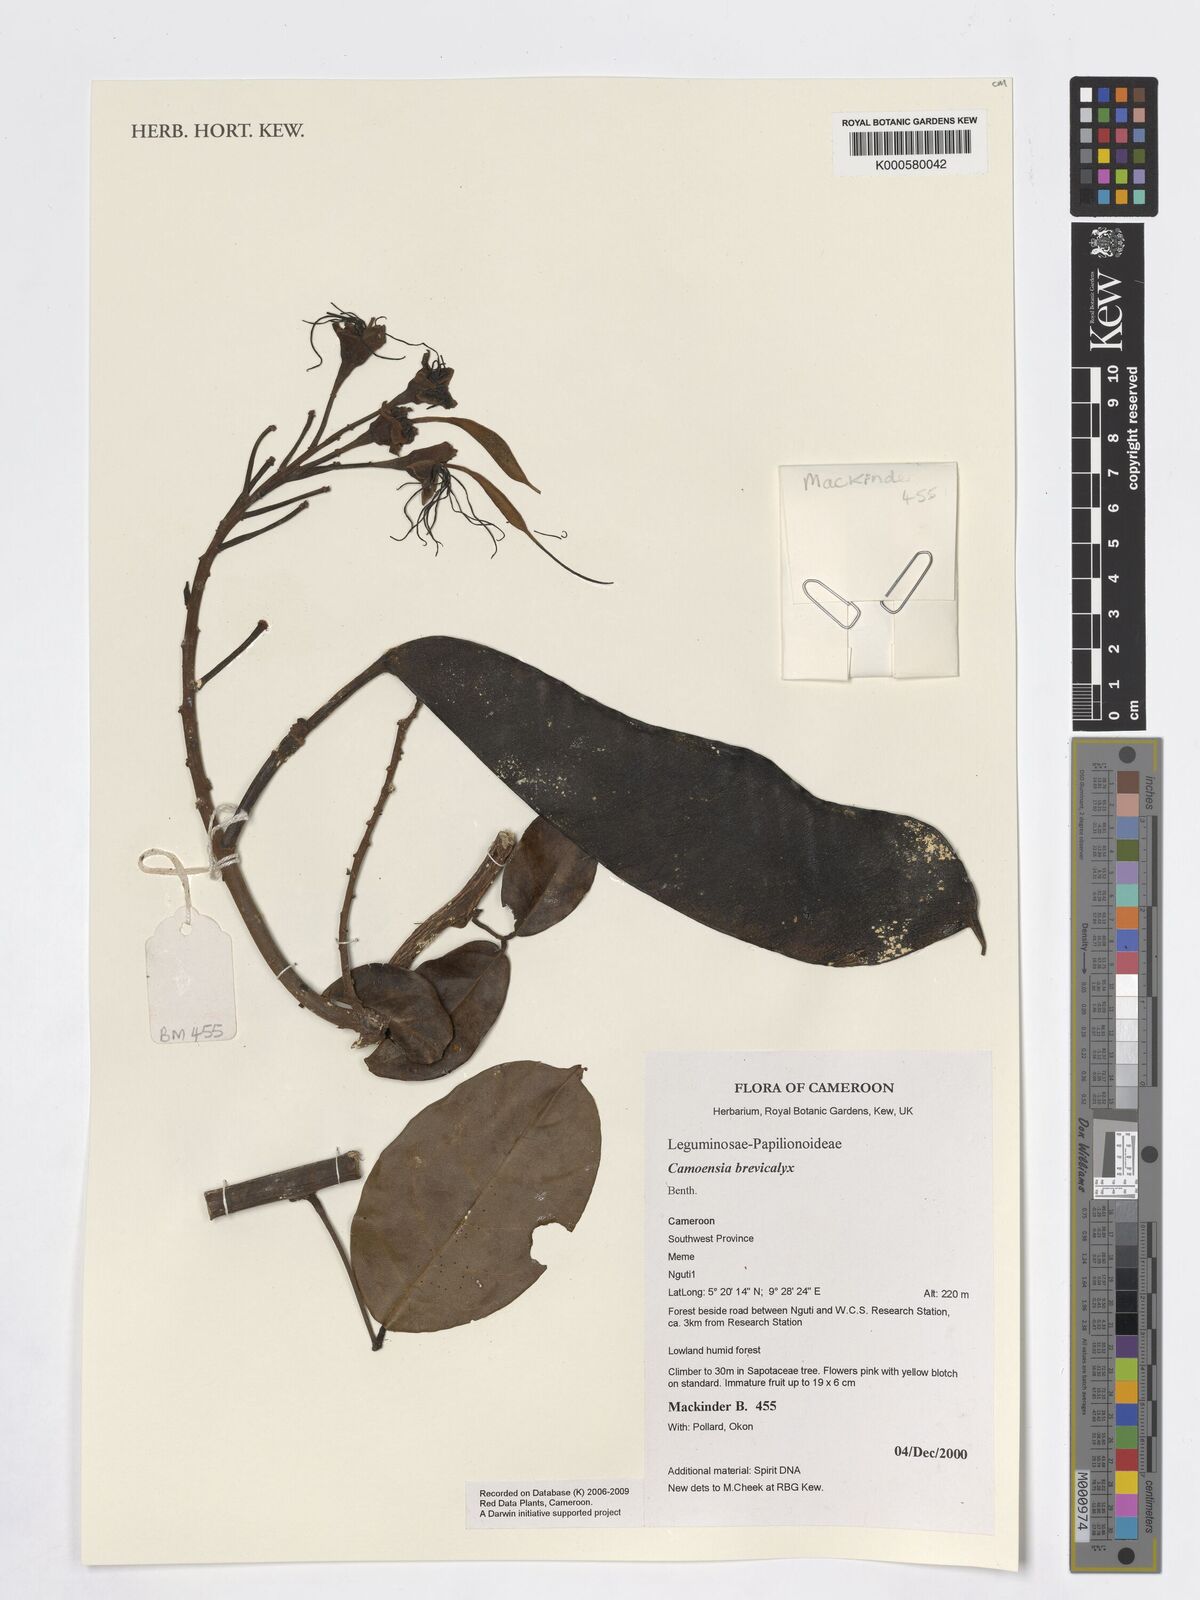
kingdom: Plantae
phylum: Tracheophyta
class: Magnoliopsida
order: Fabales
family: Fabaceae
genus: Camoensia
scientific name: Camoensia brevicalyx
